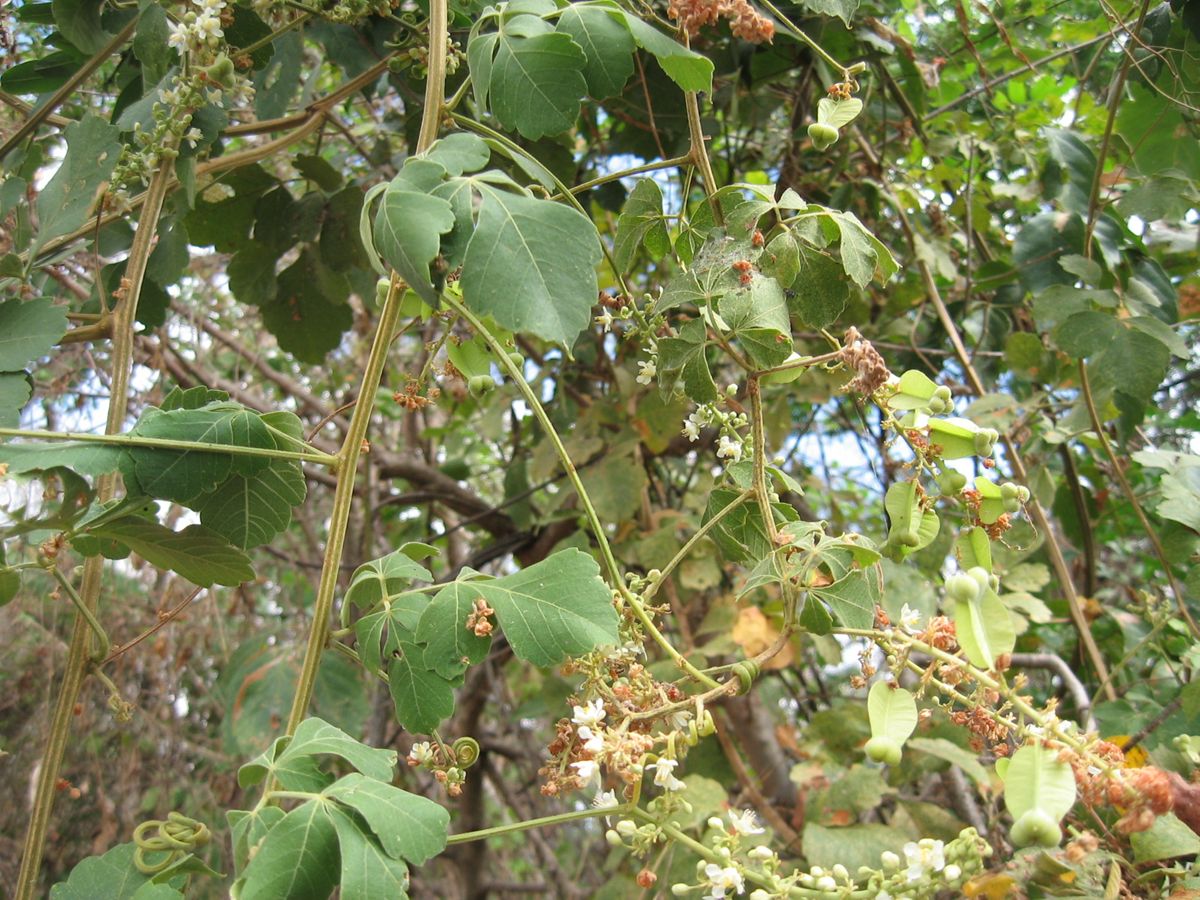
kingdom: Plantae
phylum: Tracheophyta
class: Magnoliopsida
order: Sapindales
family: Sapindaceae
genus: Serjania
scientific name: Serjania triquetra
